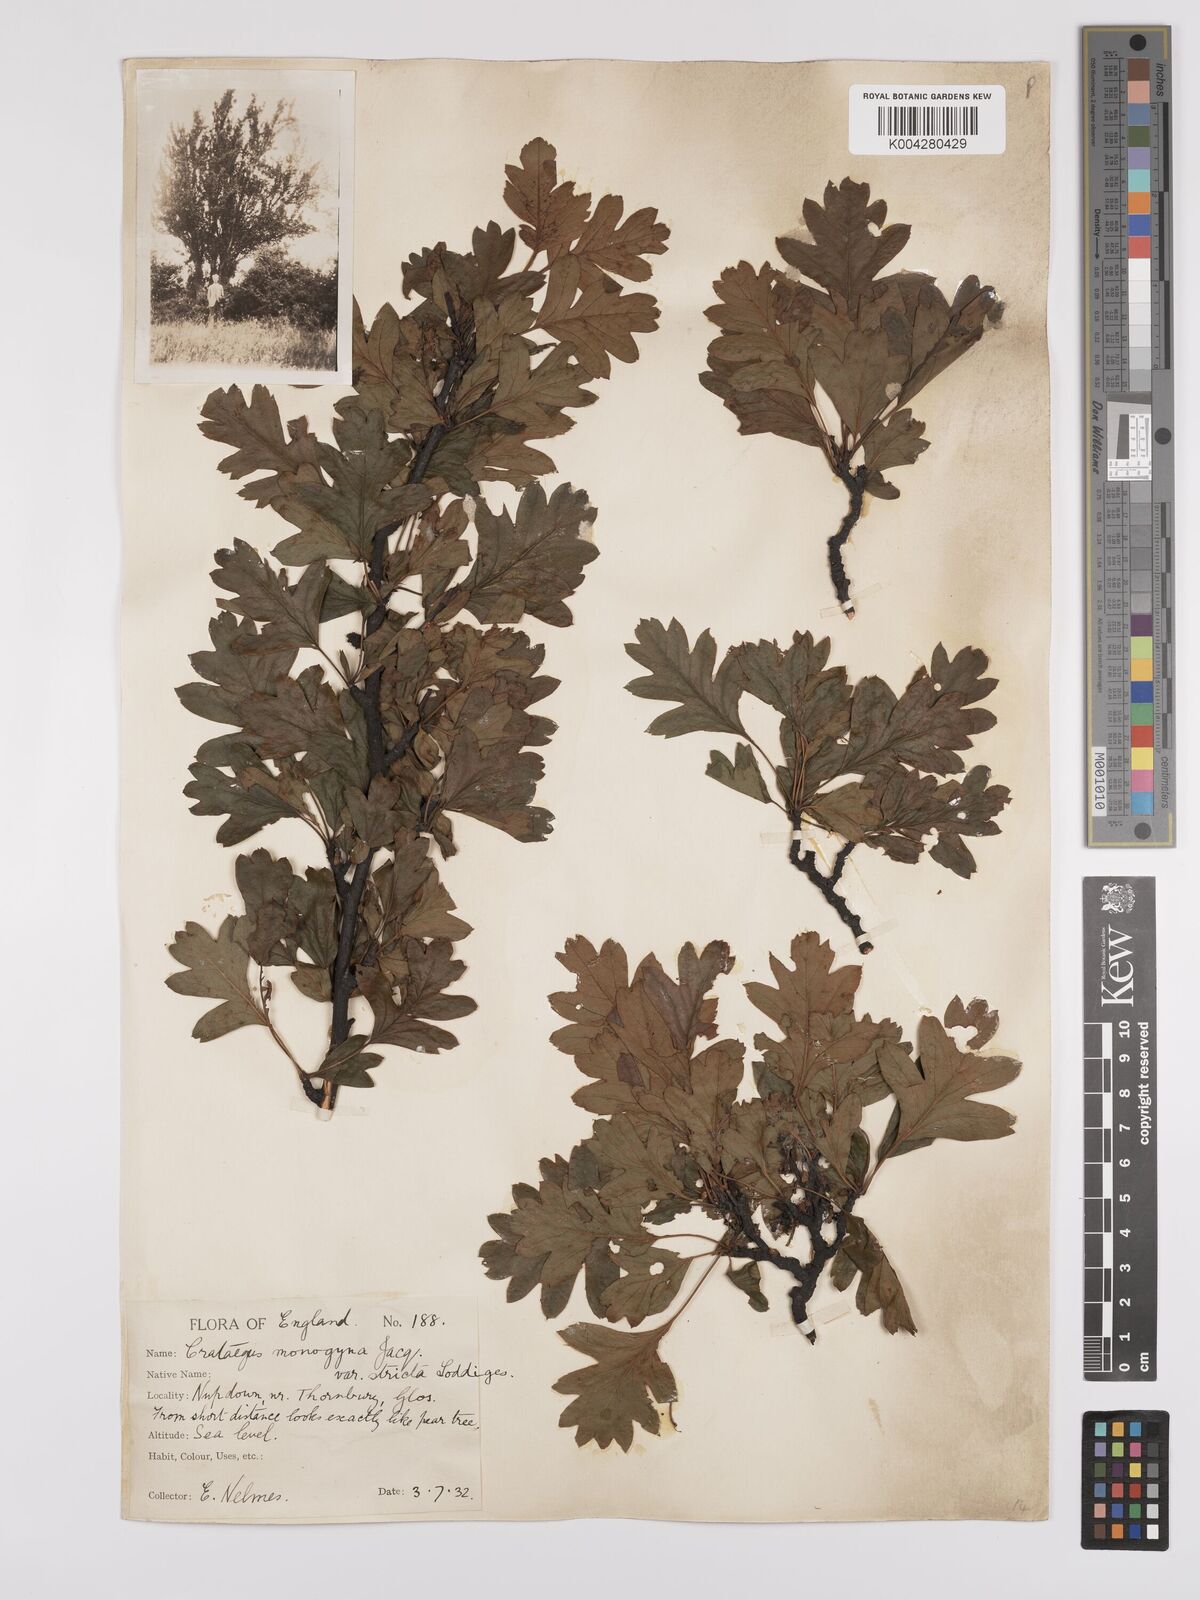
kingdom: Plantae
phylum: Tracheophyta
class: Magnoliopsida
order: Rosales
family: Rosaceae
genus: Crataegus
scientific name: Crataegus monogyna
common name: Hawthorn
